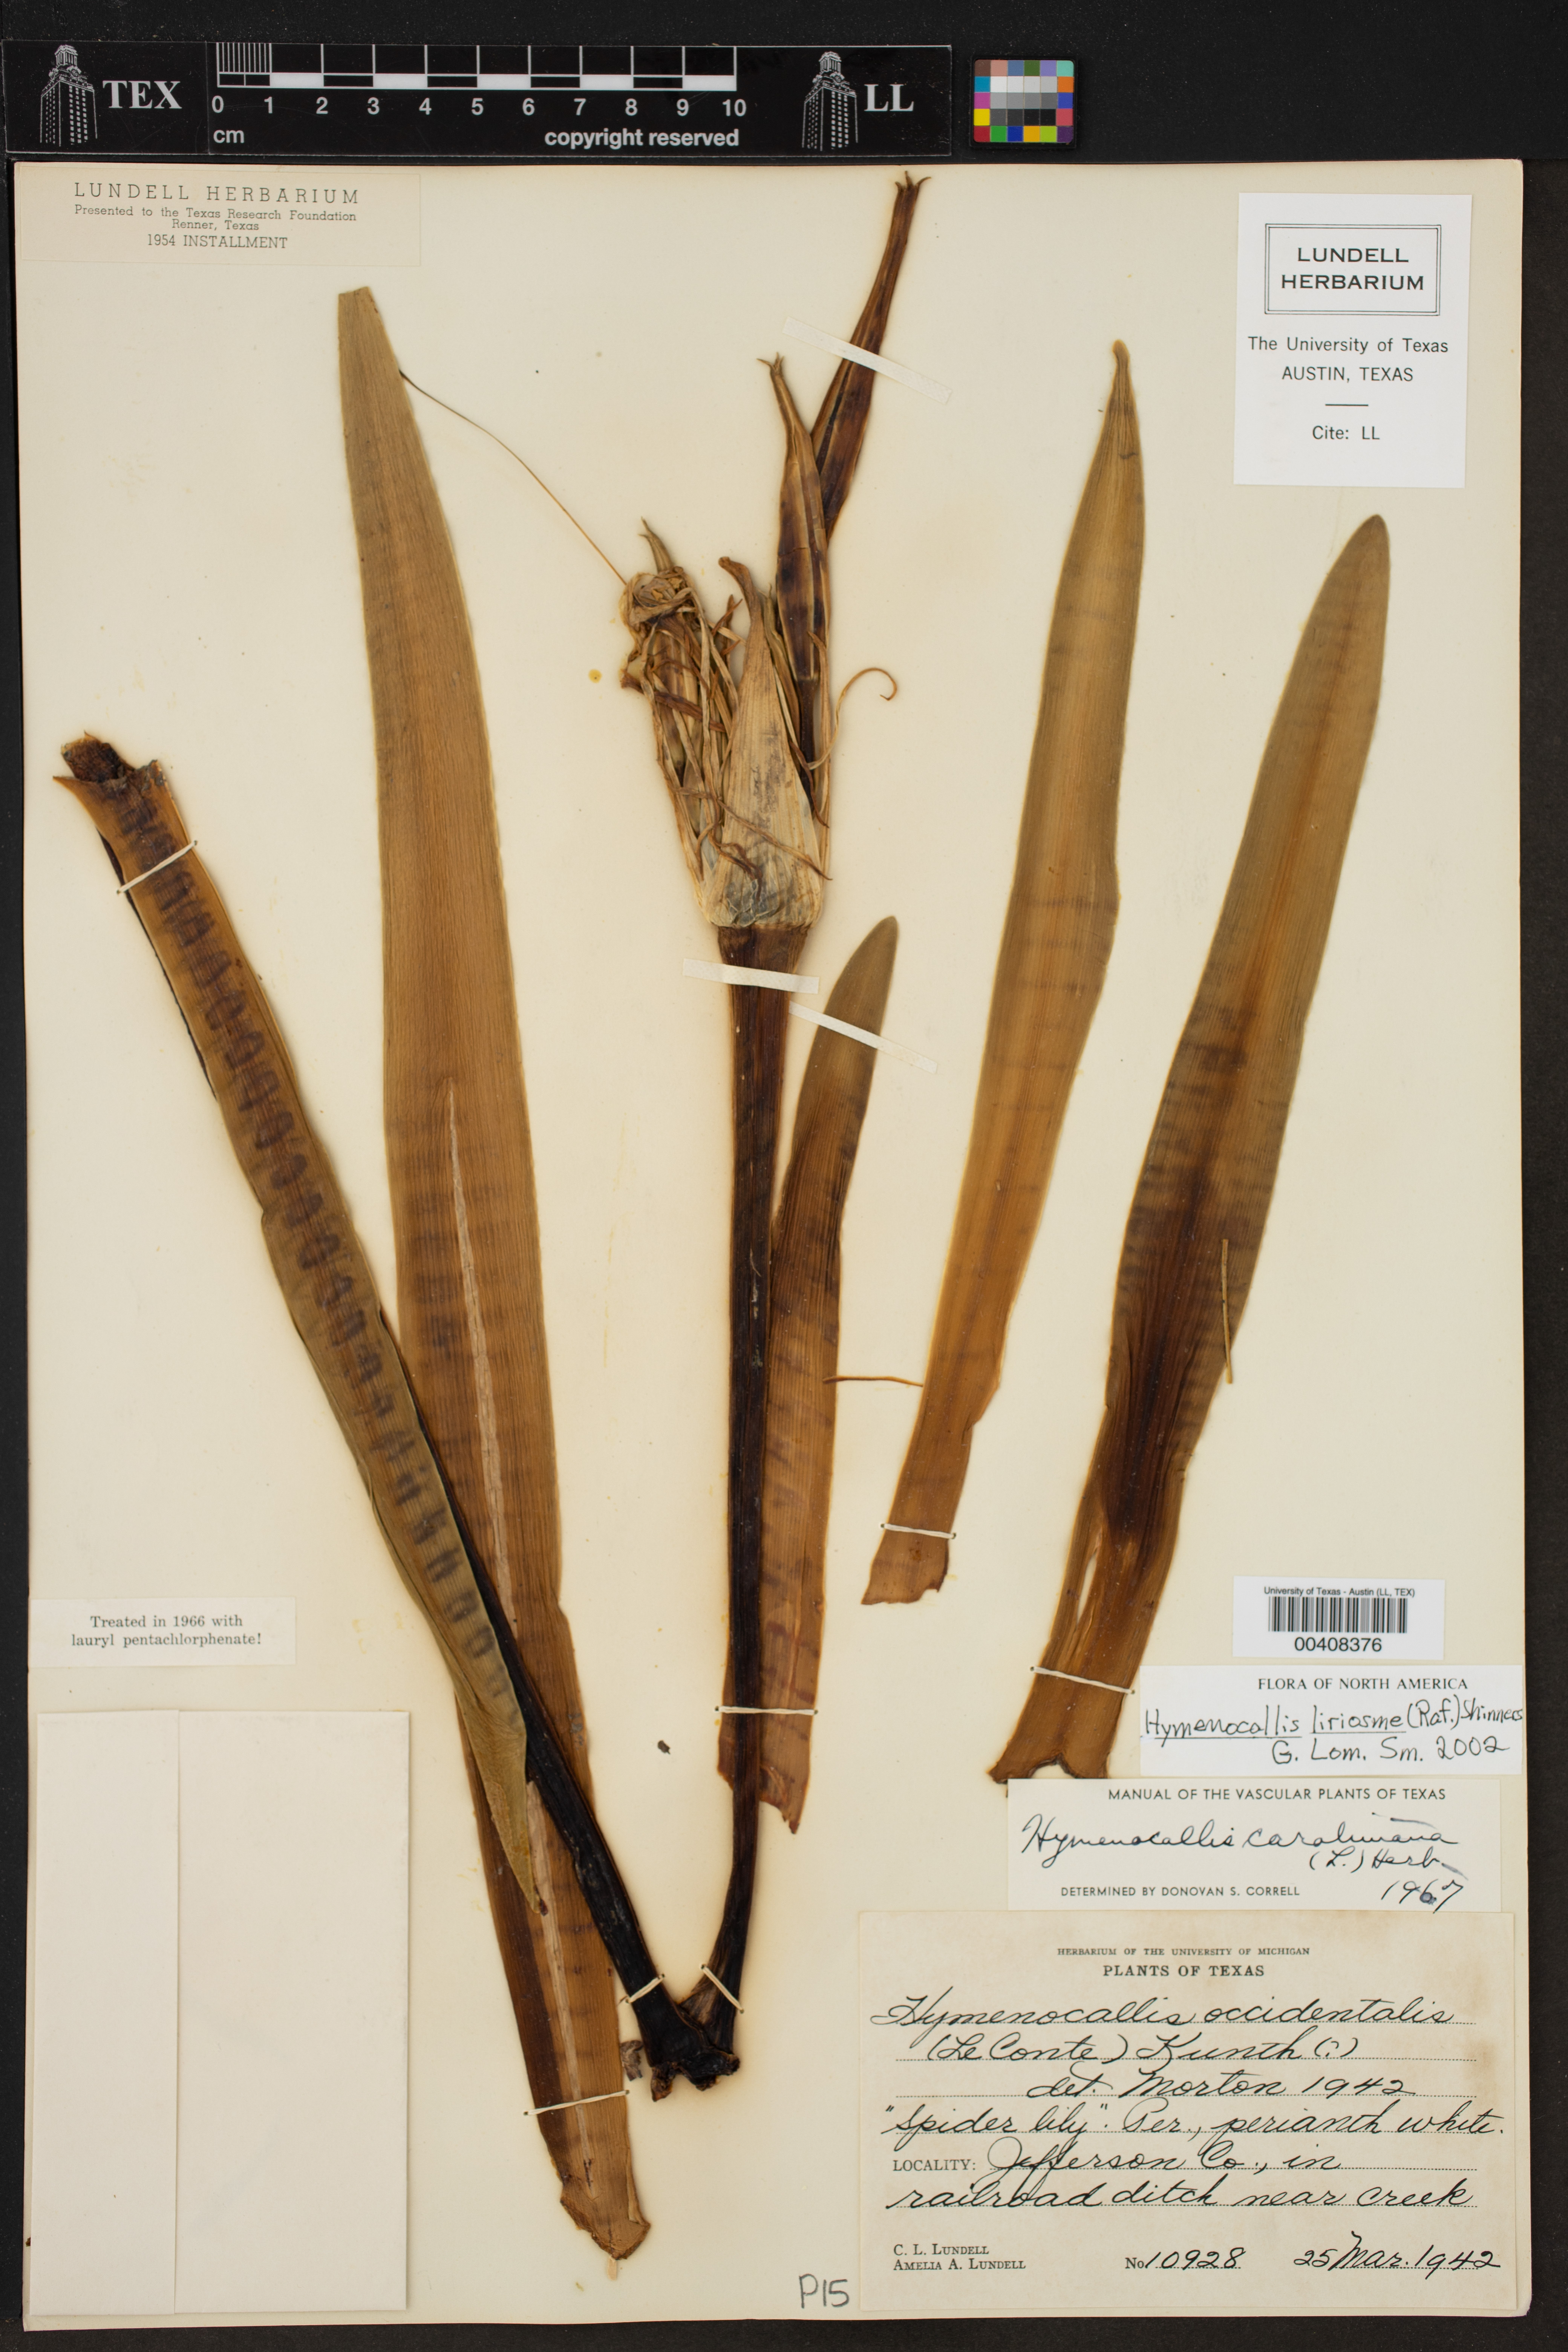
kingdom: Plantae
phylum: Tracheophyta
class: Liliopsida
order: Asparagales
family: Amaryllidaceae
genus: Hymenocallis
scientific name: Hymenocallis liriosme
